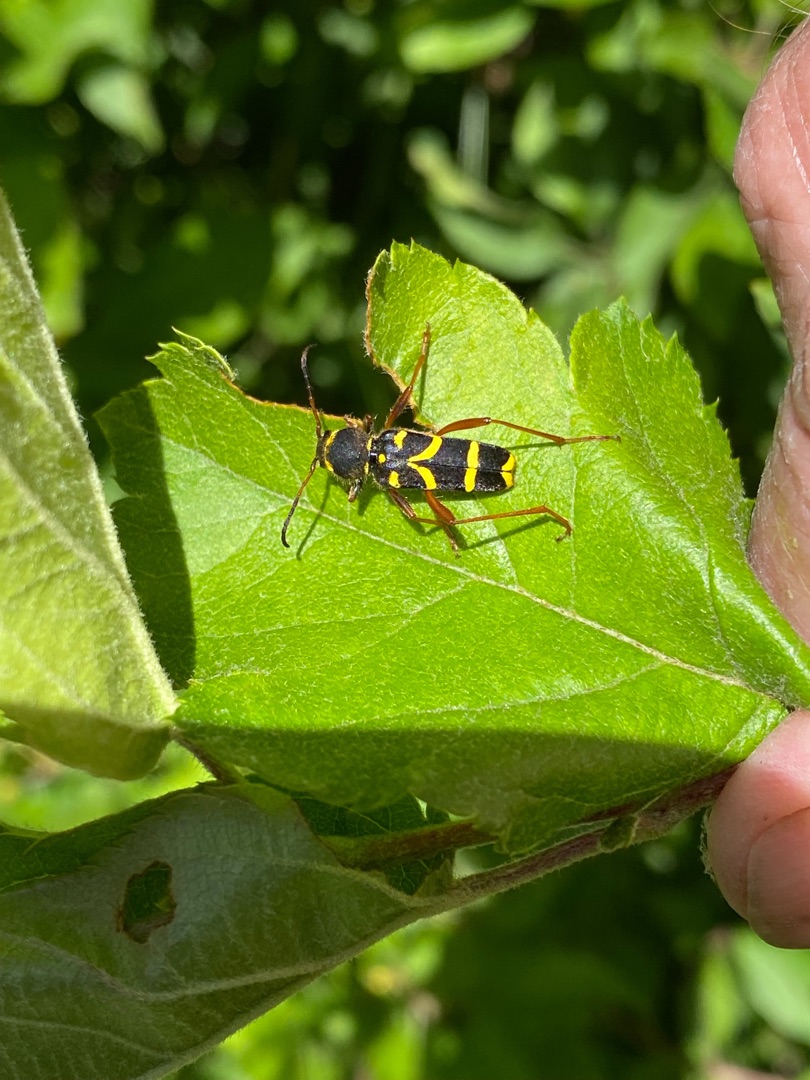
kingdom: Animalia
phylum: Arthropoda
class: Insecta
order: Coleoptera
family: Cerambycidae
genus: Clytus
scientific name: Clytus arietis
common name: Lille hvepsebuk
